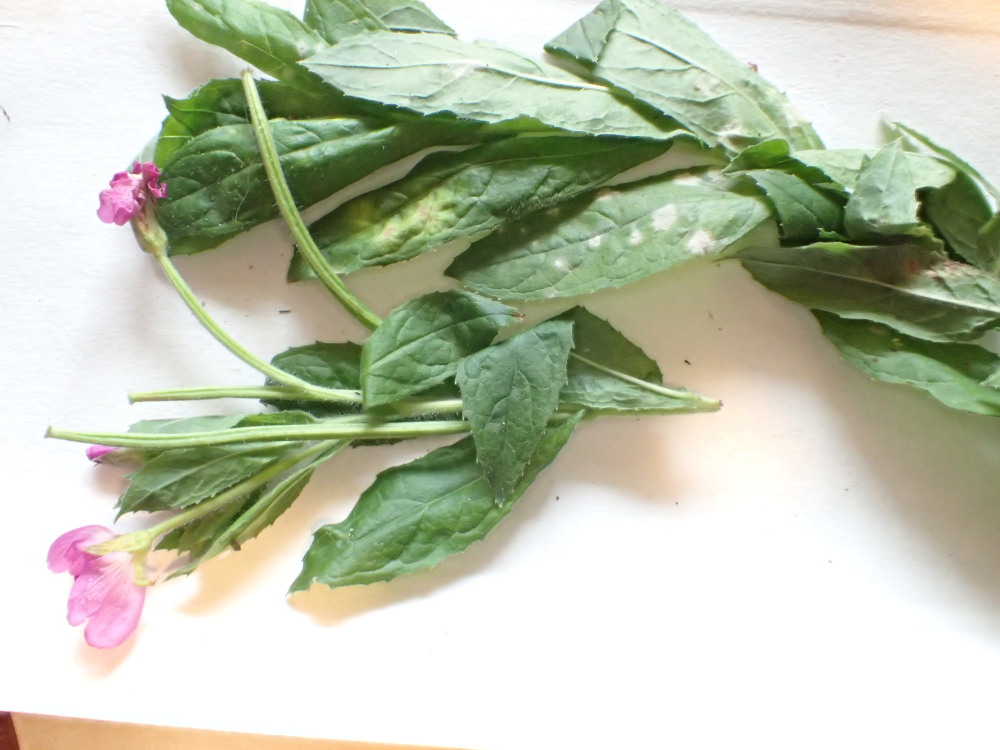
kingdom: Fungi
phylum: Ascomycota
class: Leotiomycetes
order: Helotiales
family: Erysiphaceae
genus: Podosphaera
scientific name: Podosphaera epilobii
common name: dueurt-meldug
